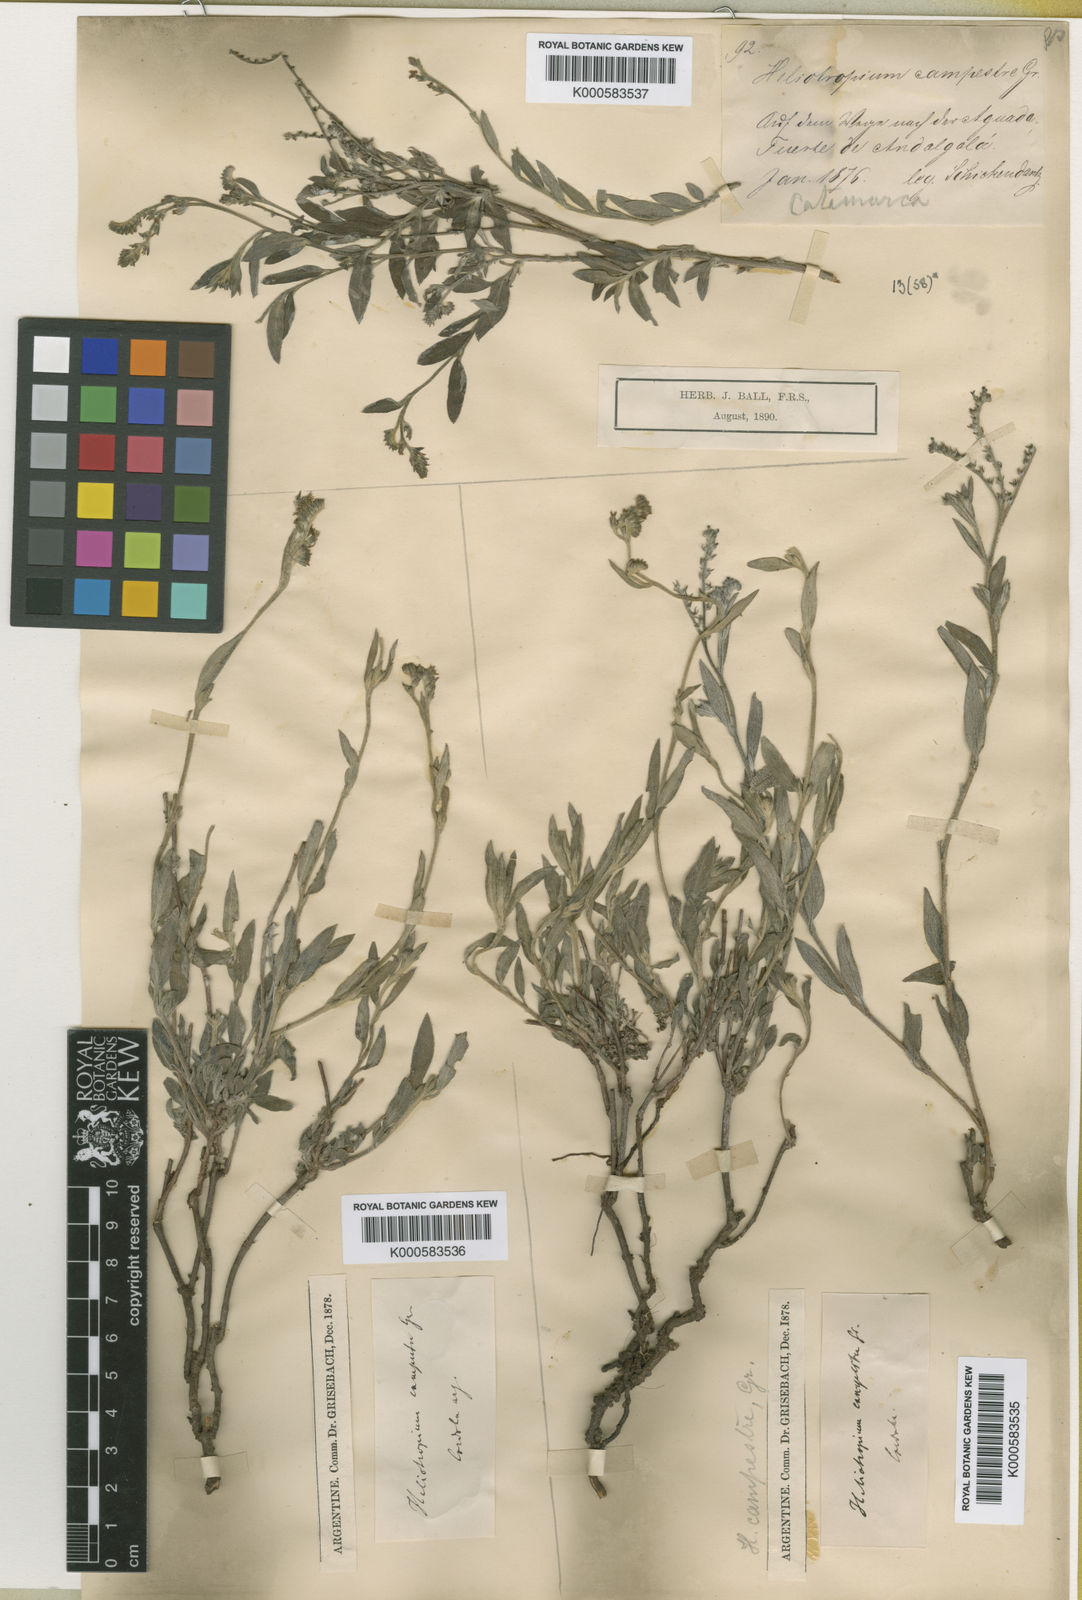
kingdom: Plantae
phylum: Tracheophyta
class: Magnoliopsida
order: Boraginales
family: Heliotropiaceae
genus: Euploca
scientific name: Euploca campestris
